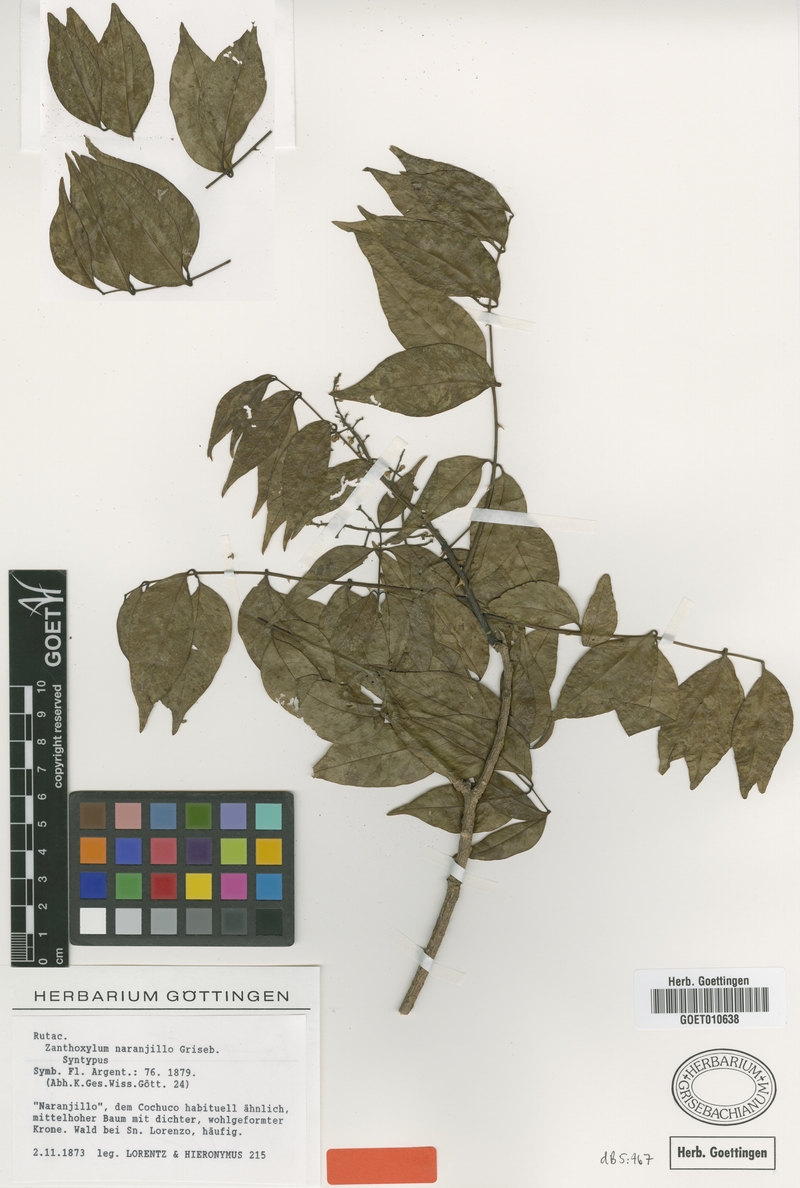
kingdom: Plantae
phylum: Tracheophyta
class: Magnoliopsida
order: Sapindales
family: Rutaceae
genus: Zanthoxylum
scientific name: Zanthoxylum petiolare
